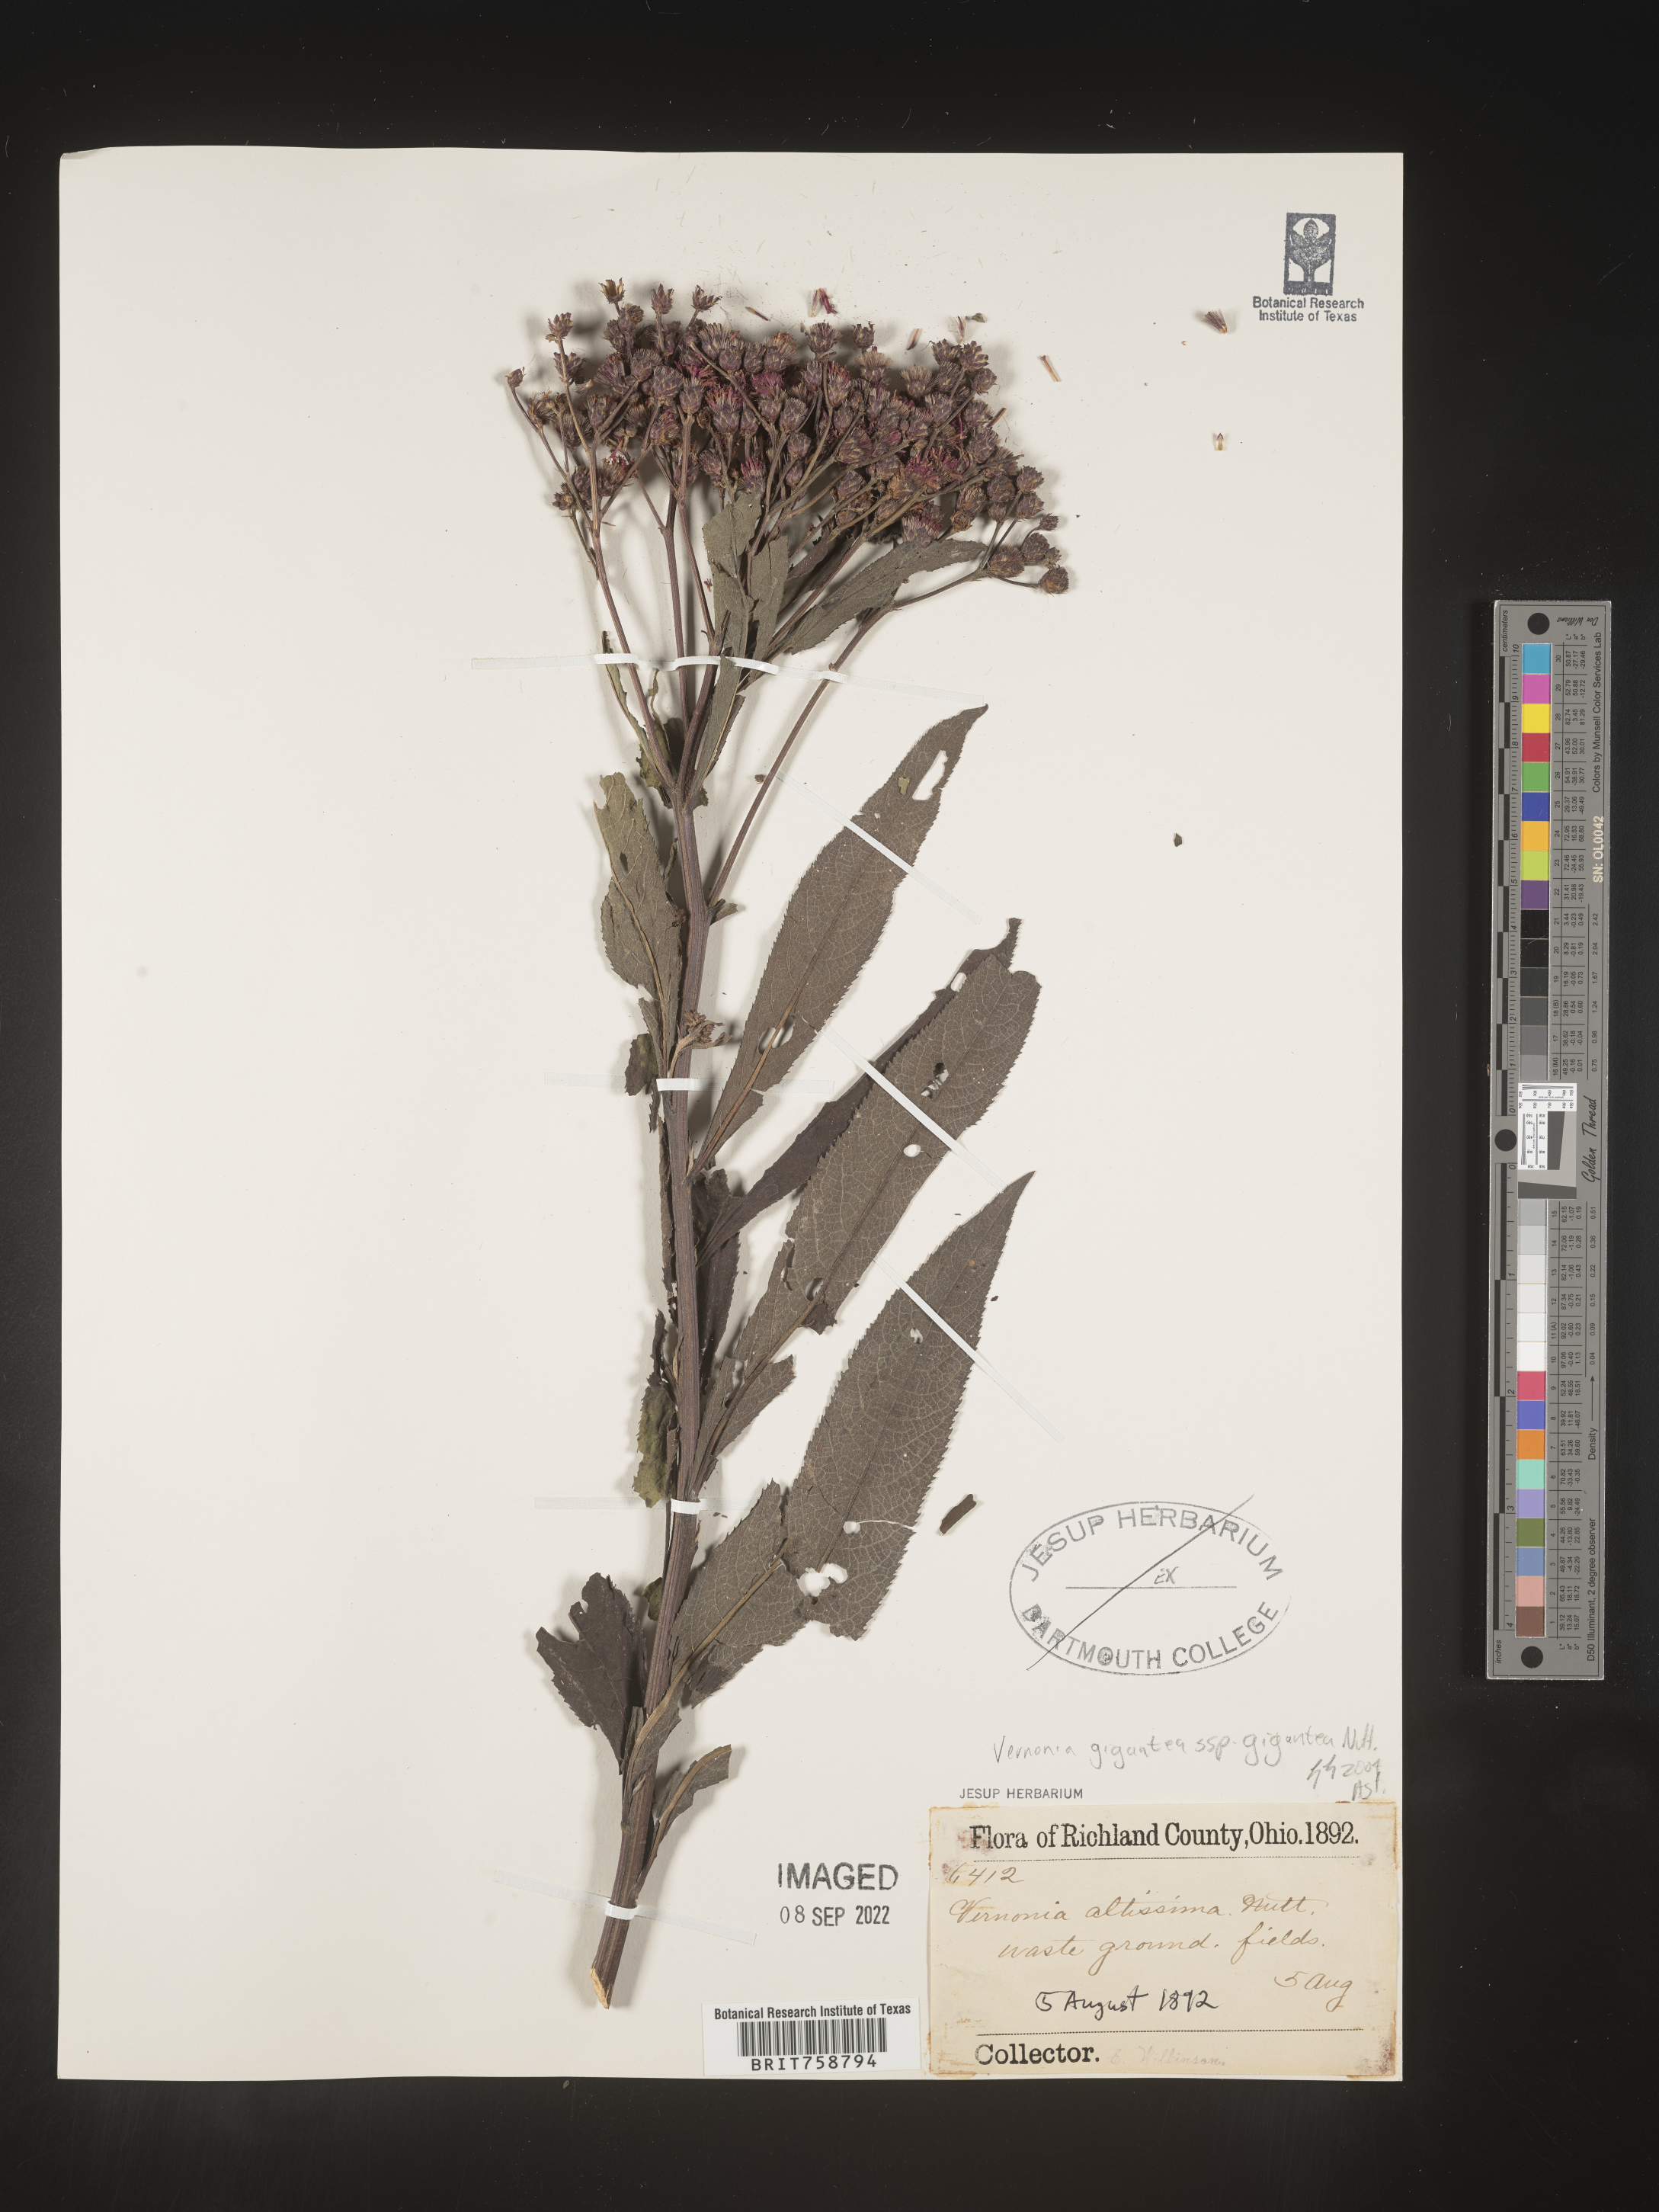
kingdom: Plantae
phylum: Tracheophyta
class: Magnoliopsida
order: Asterales
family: Asteraceae
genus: Vernonia
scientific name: Vernonia gigantea
